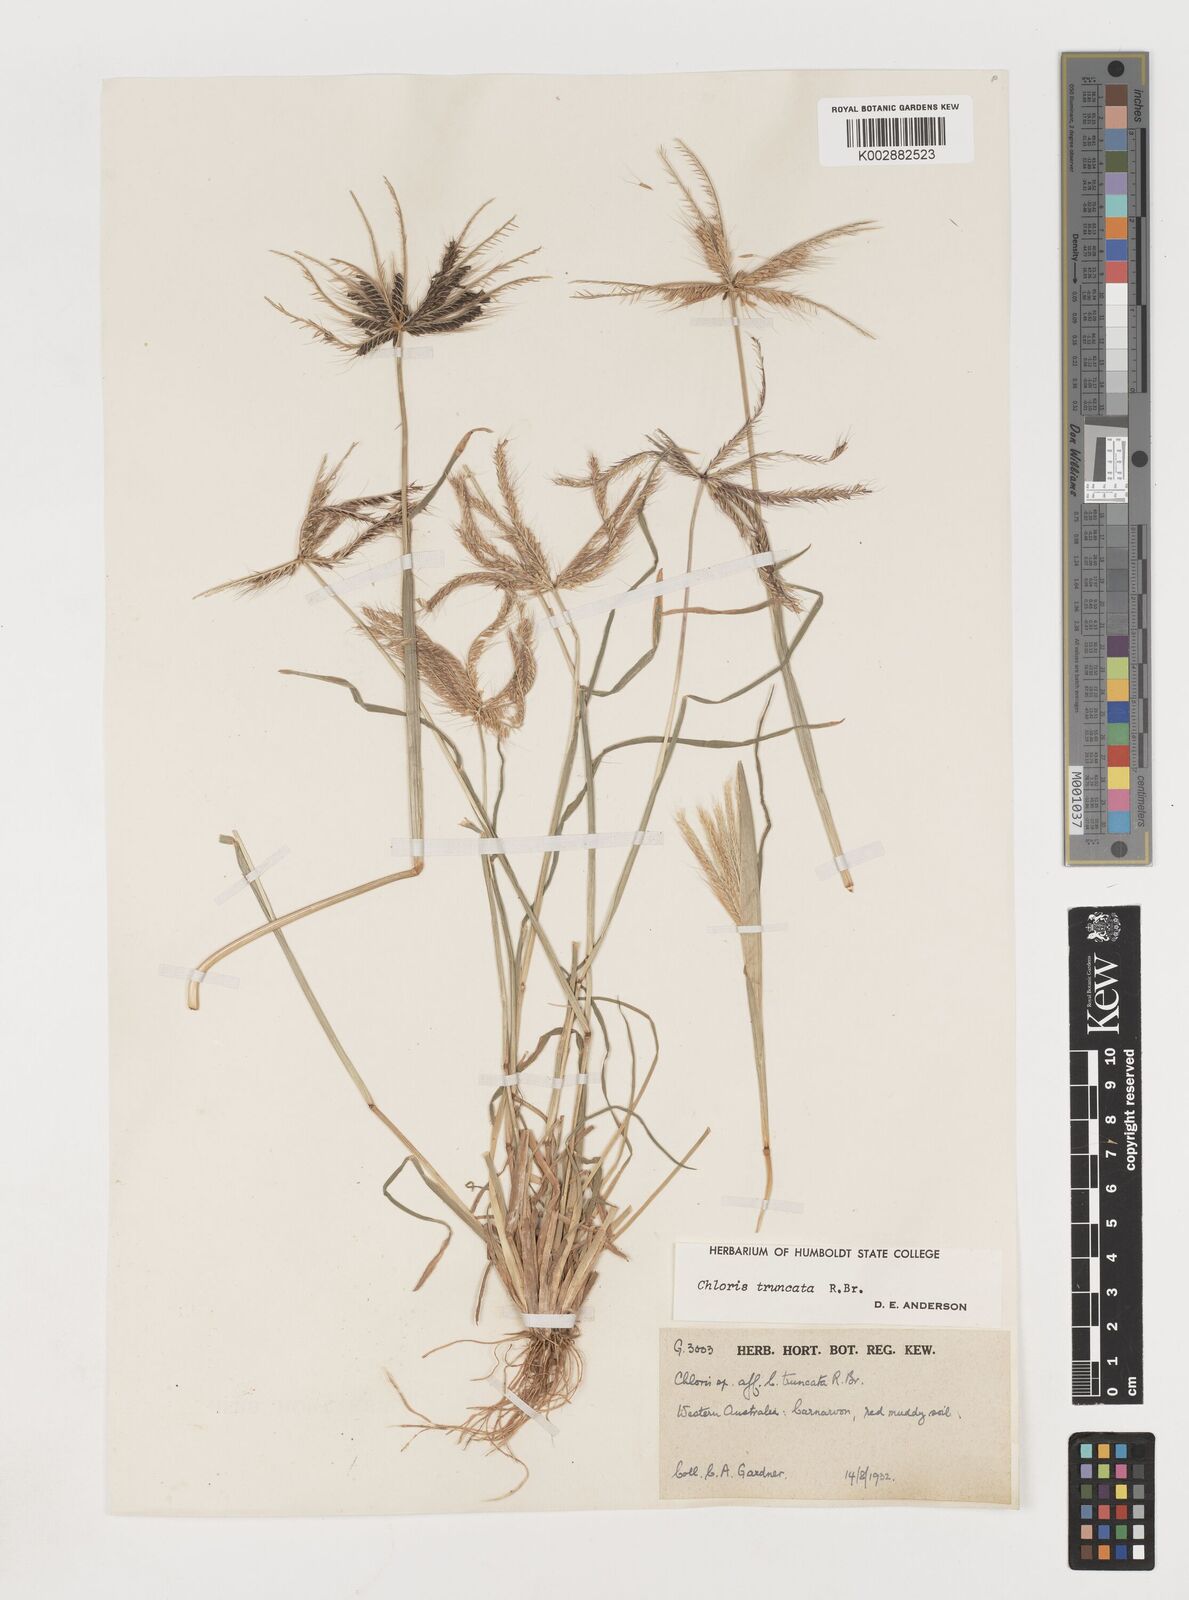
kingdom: Plantae
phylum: Tracheophyta
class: Liliopsida
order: Poales
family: Poaceae
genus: Chloris
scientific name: Chloris truncata
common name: Windmill-grass
